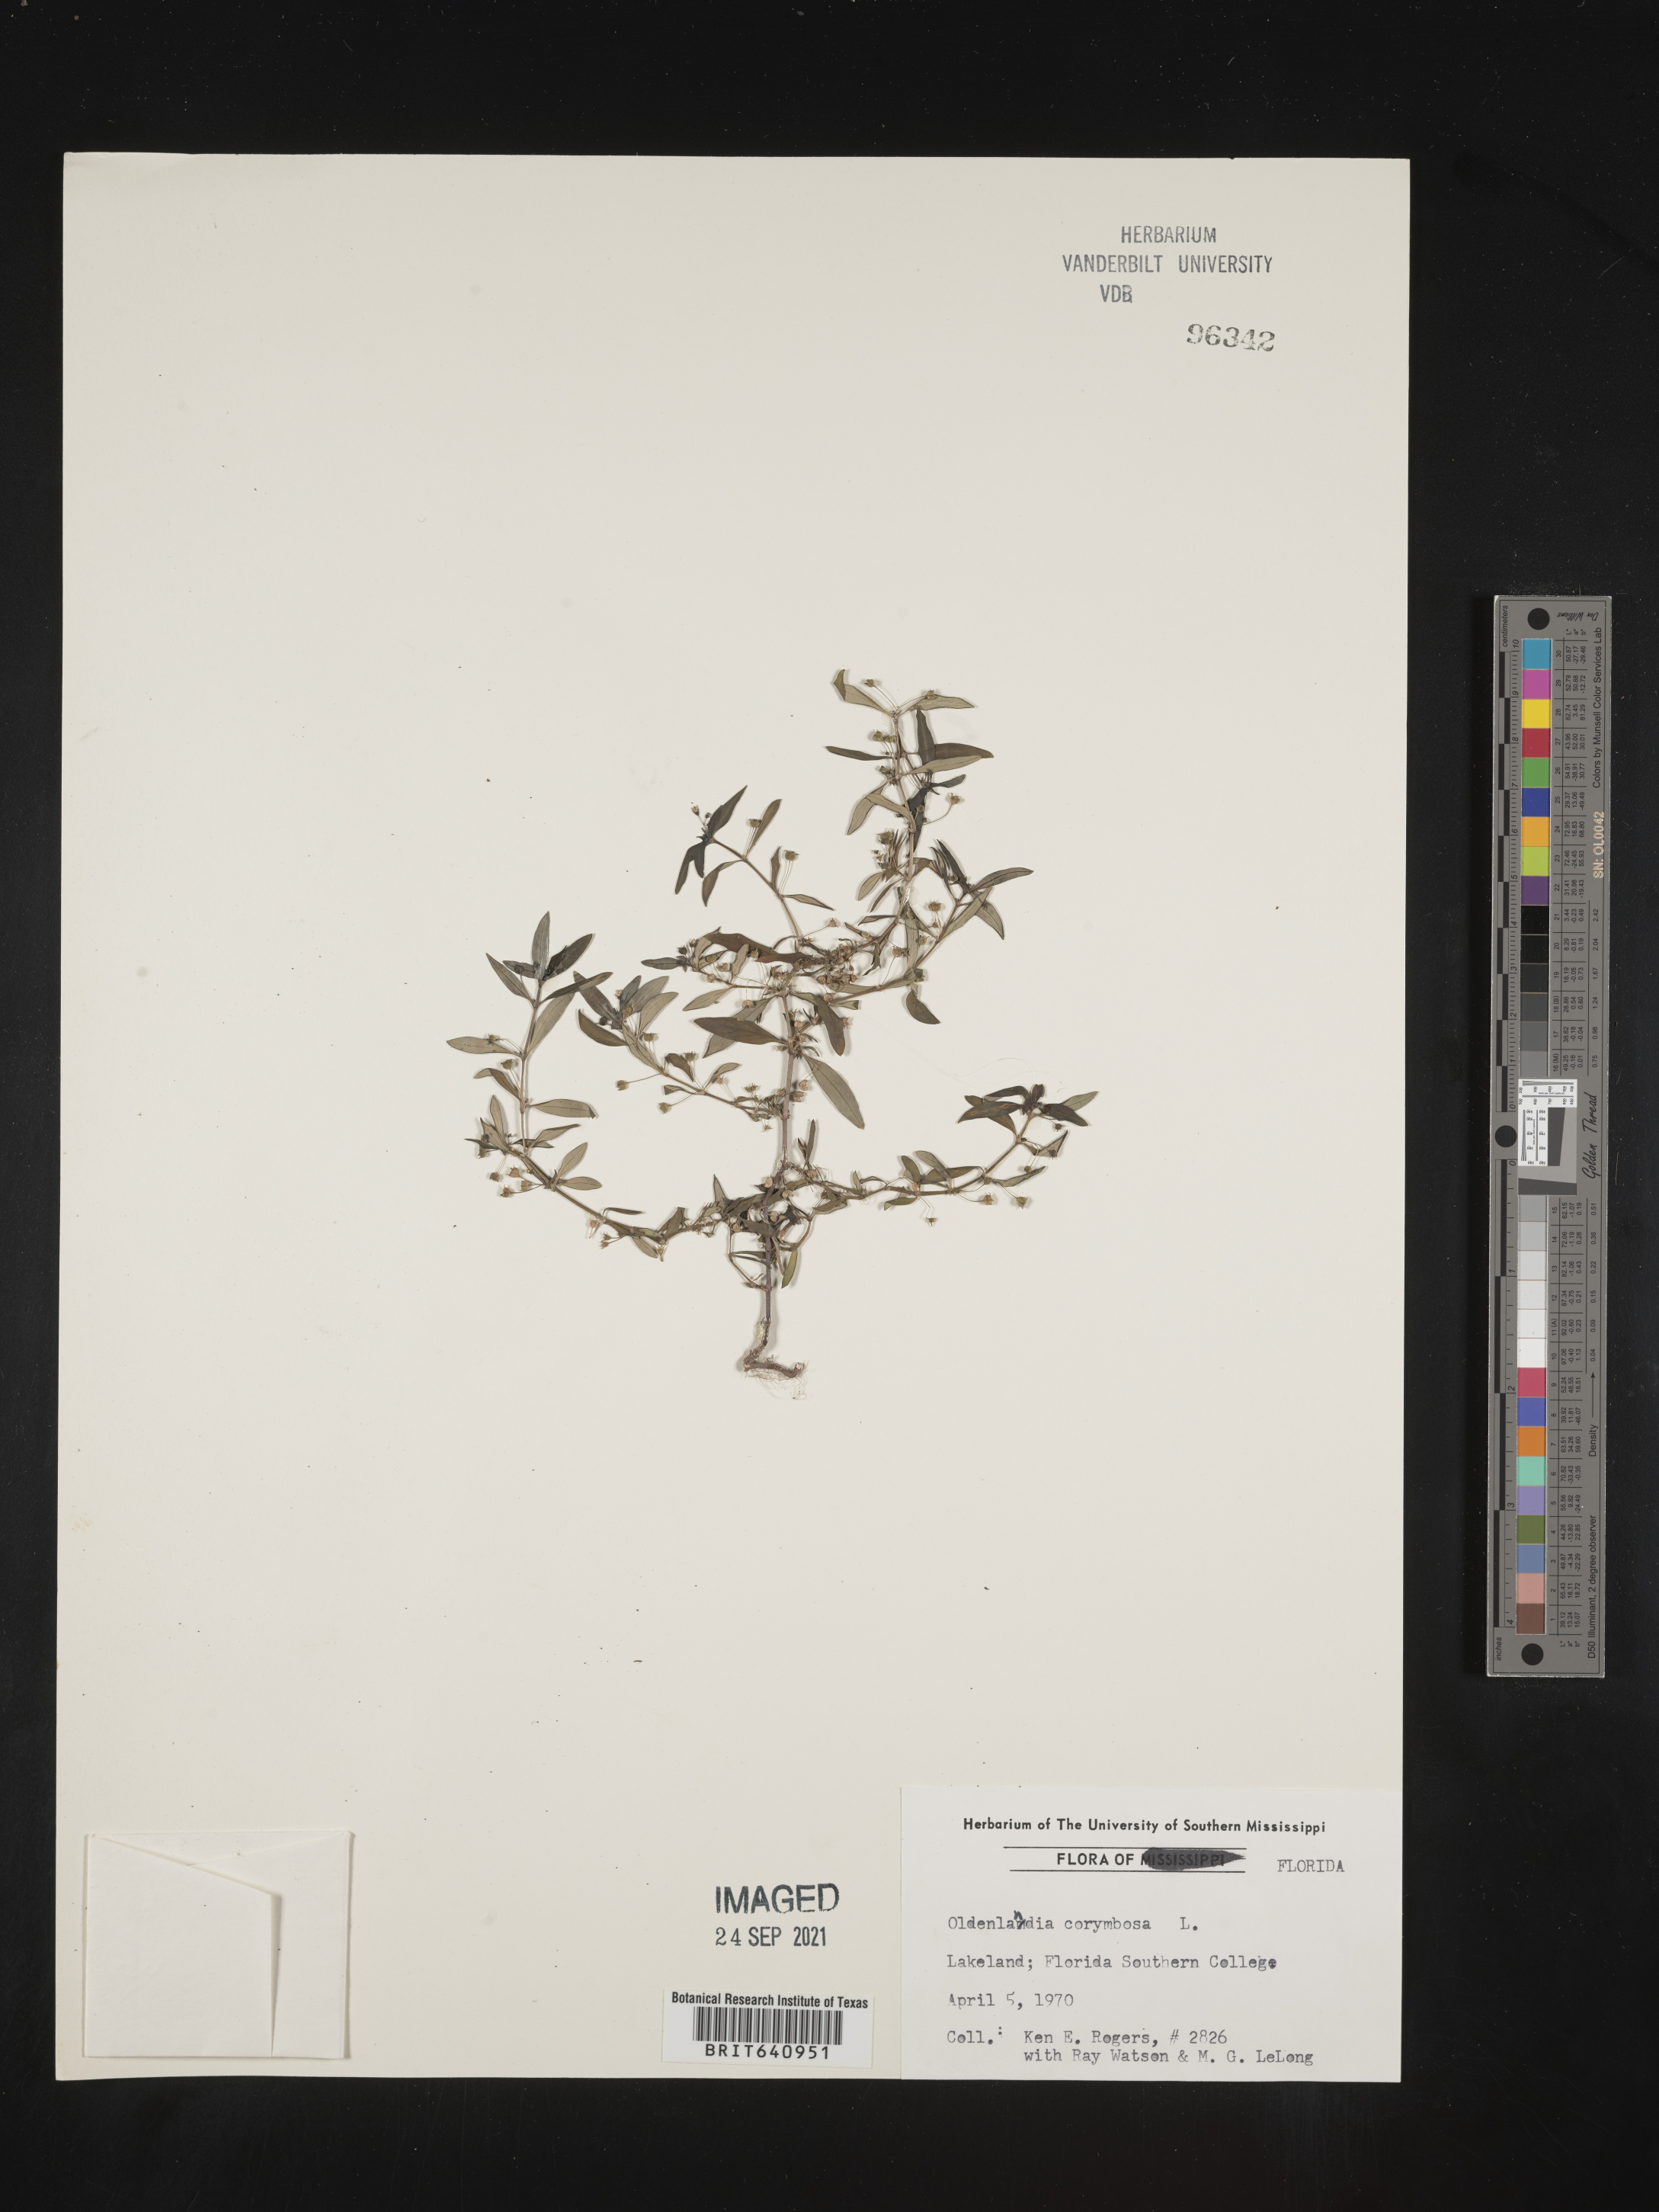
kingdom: Plantae
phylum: Tracheophyta
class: Magnoliopsida
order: Gentianales
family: Rubiaceae
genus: Oldenlandia
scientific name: Oldenlandia corymbosa
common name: Flat-top mille graines
